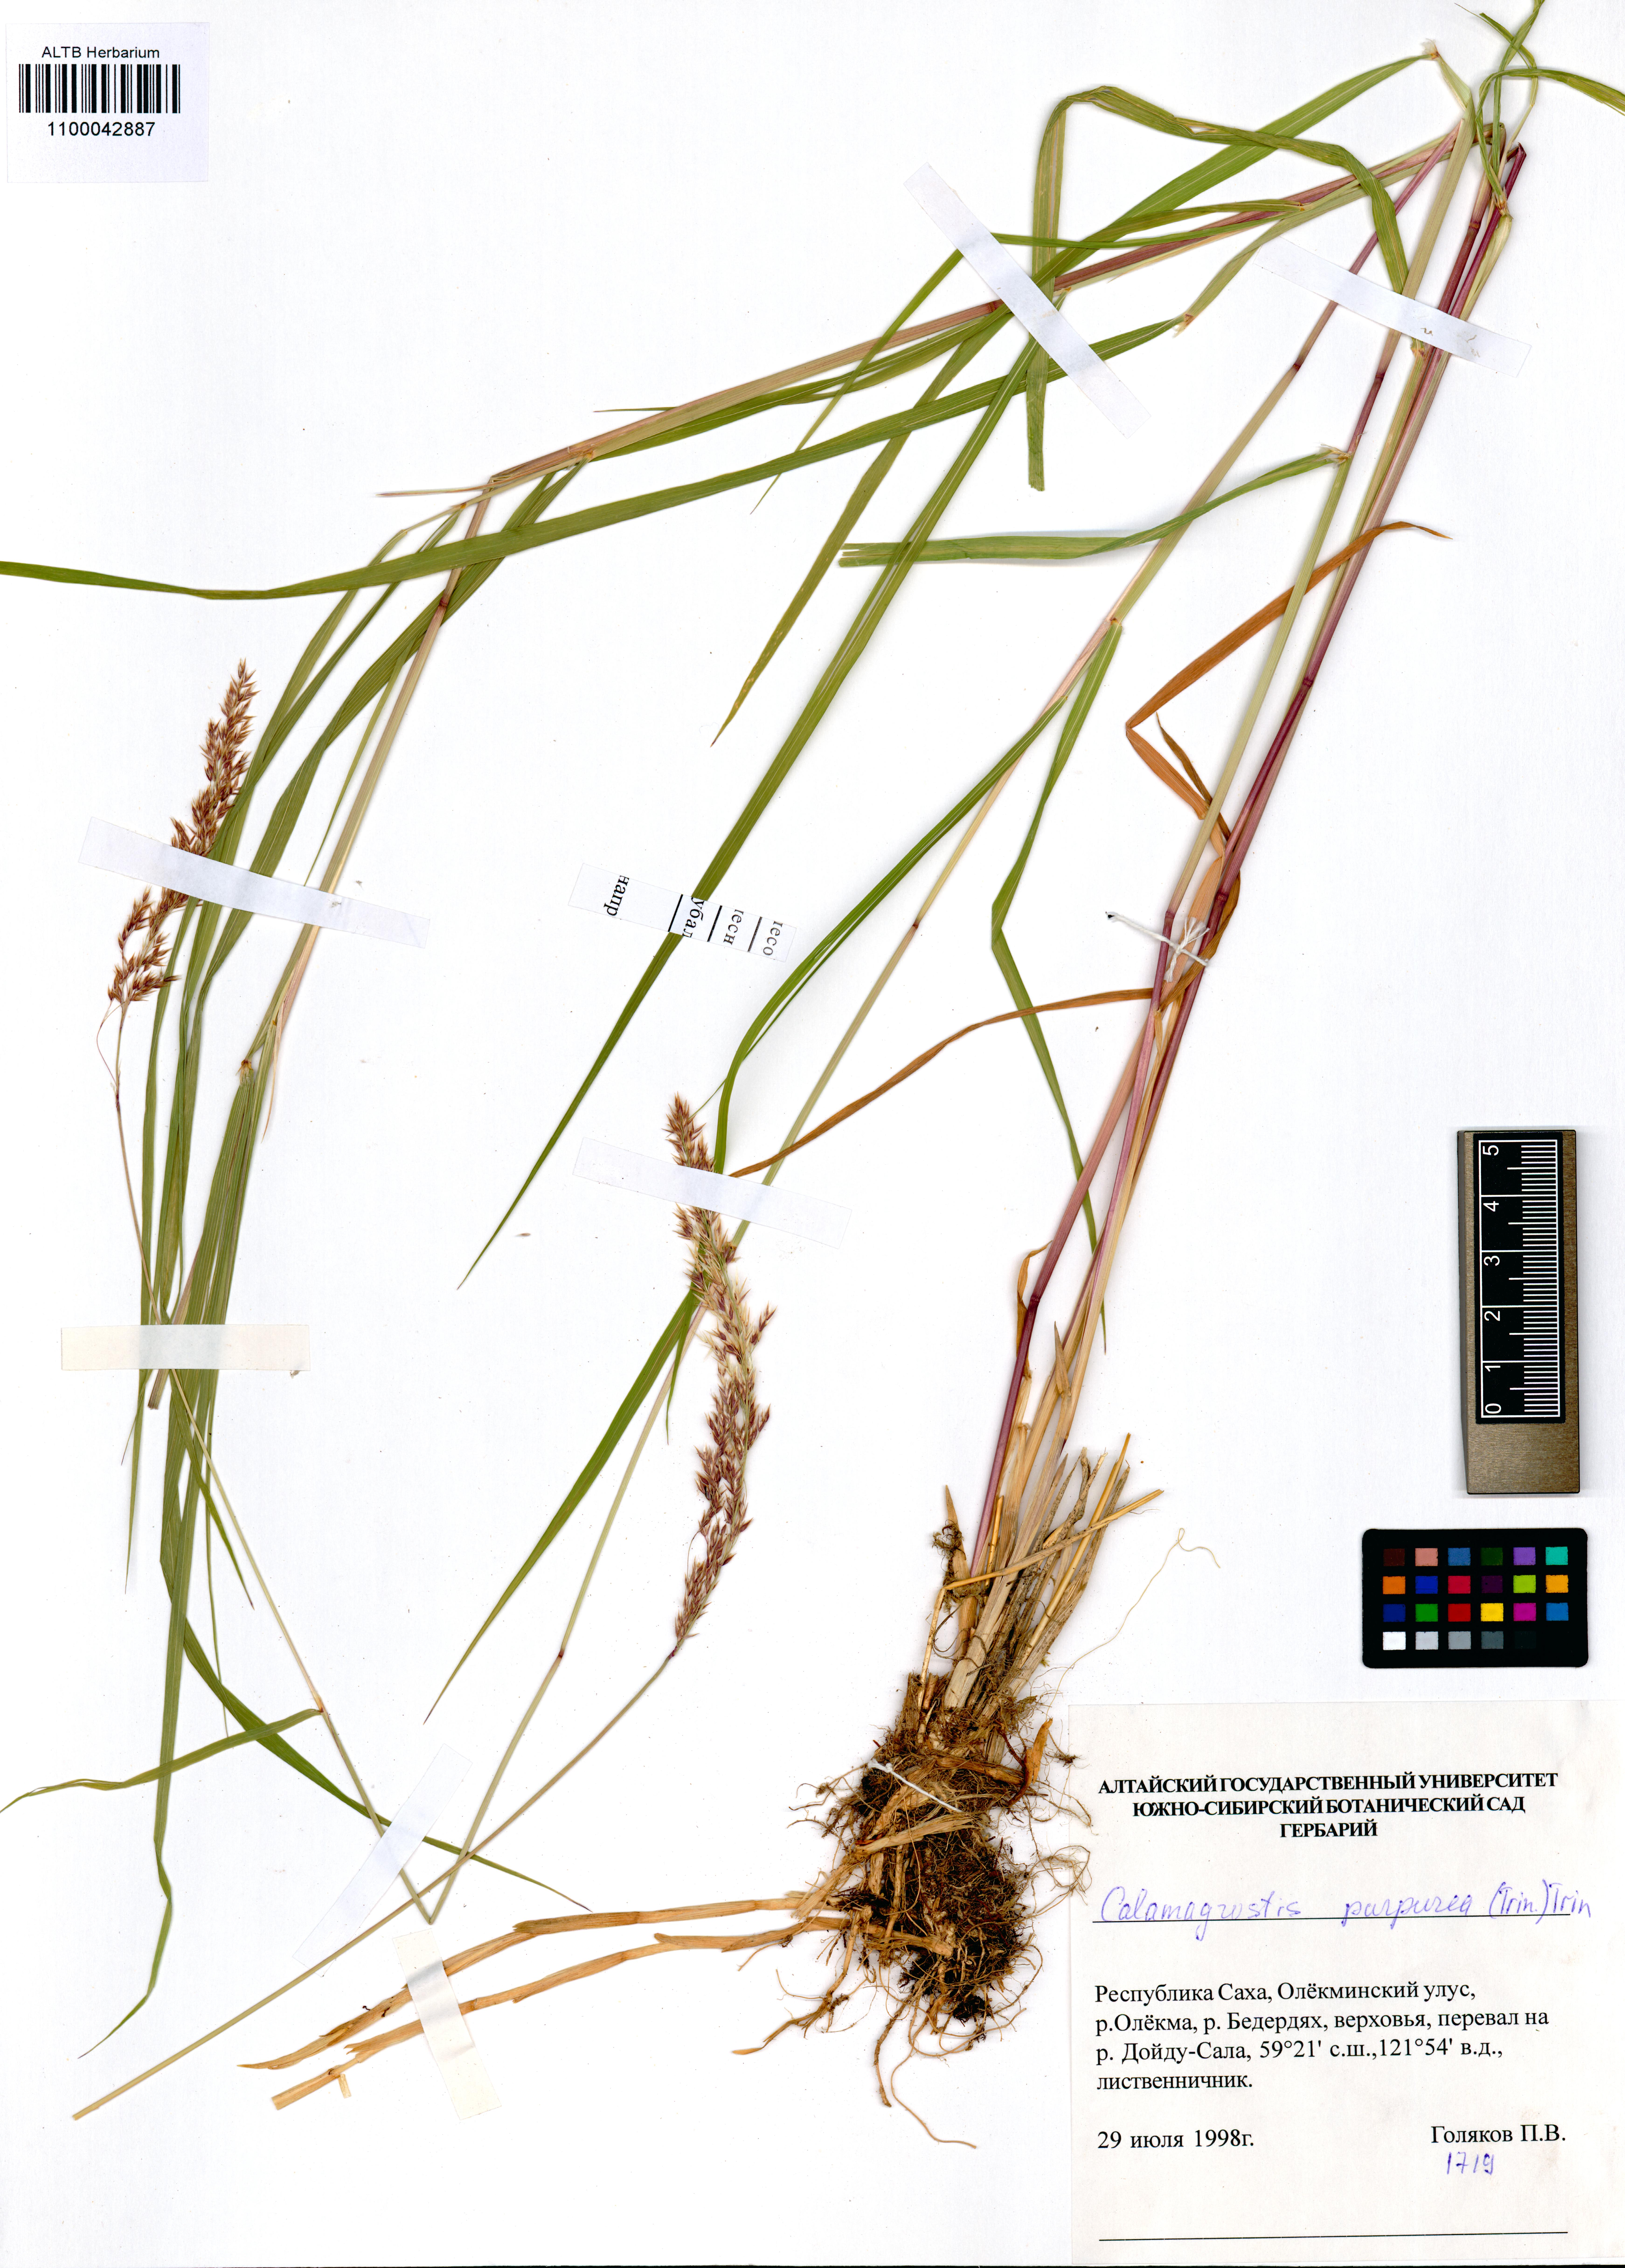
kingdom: Plantae
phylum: Tracheophyta
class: Liliopsida
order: Poales
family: Poaceae
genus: Calamagrostis
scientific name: Calamagrostis purpurea
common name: Scandinavian small-reed
